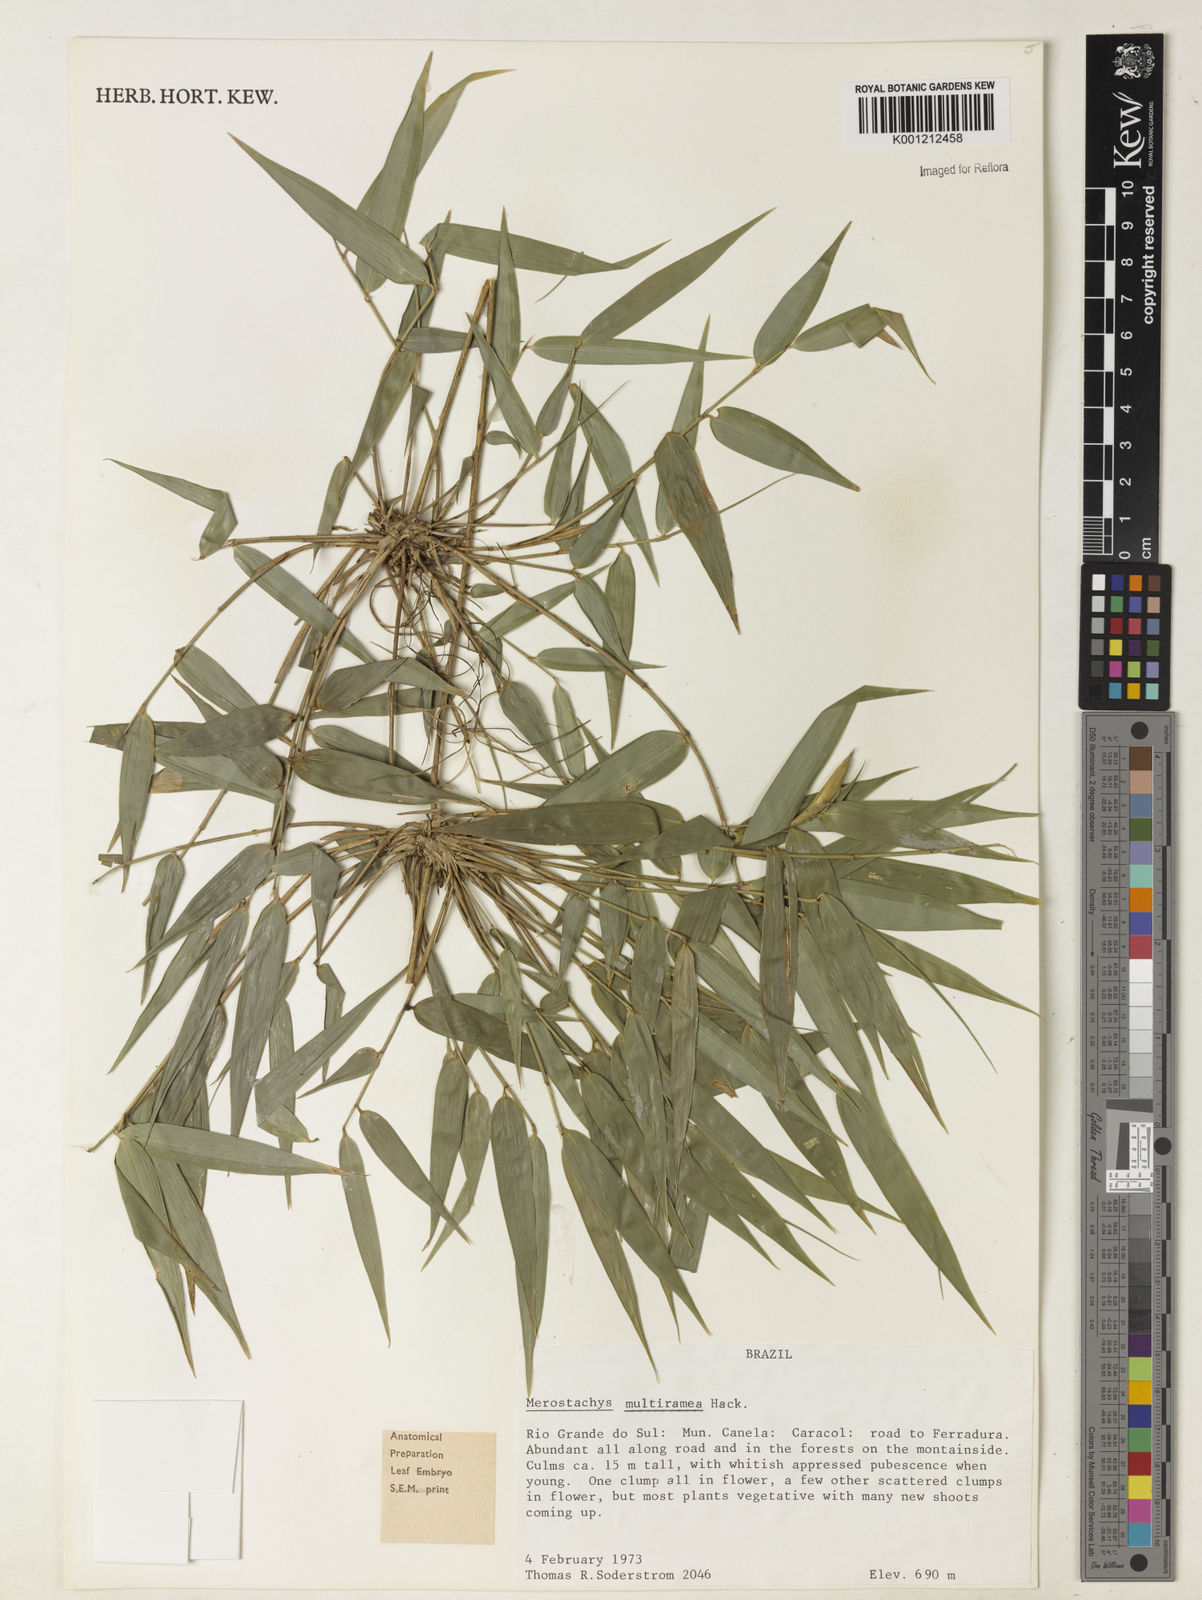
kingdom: Plantae
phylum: Tracheophyta
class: Liliopsida
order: Poales
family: Poaceae
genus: Merostachys
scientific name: Merostachys multiramea
